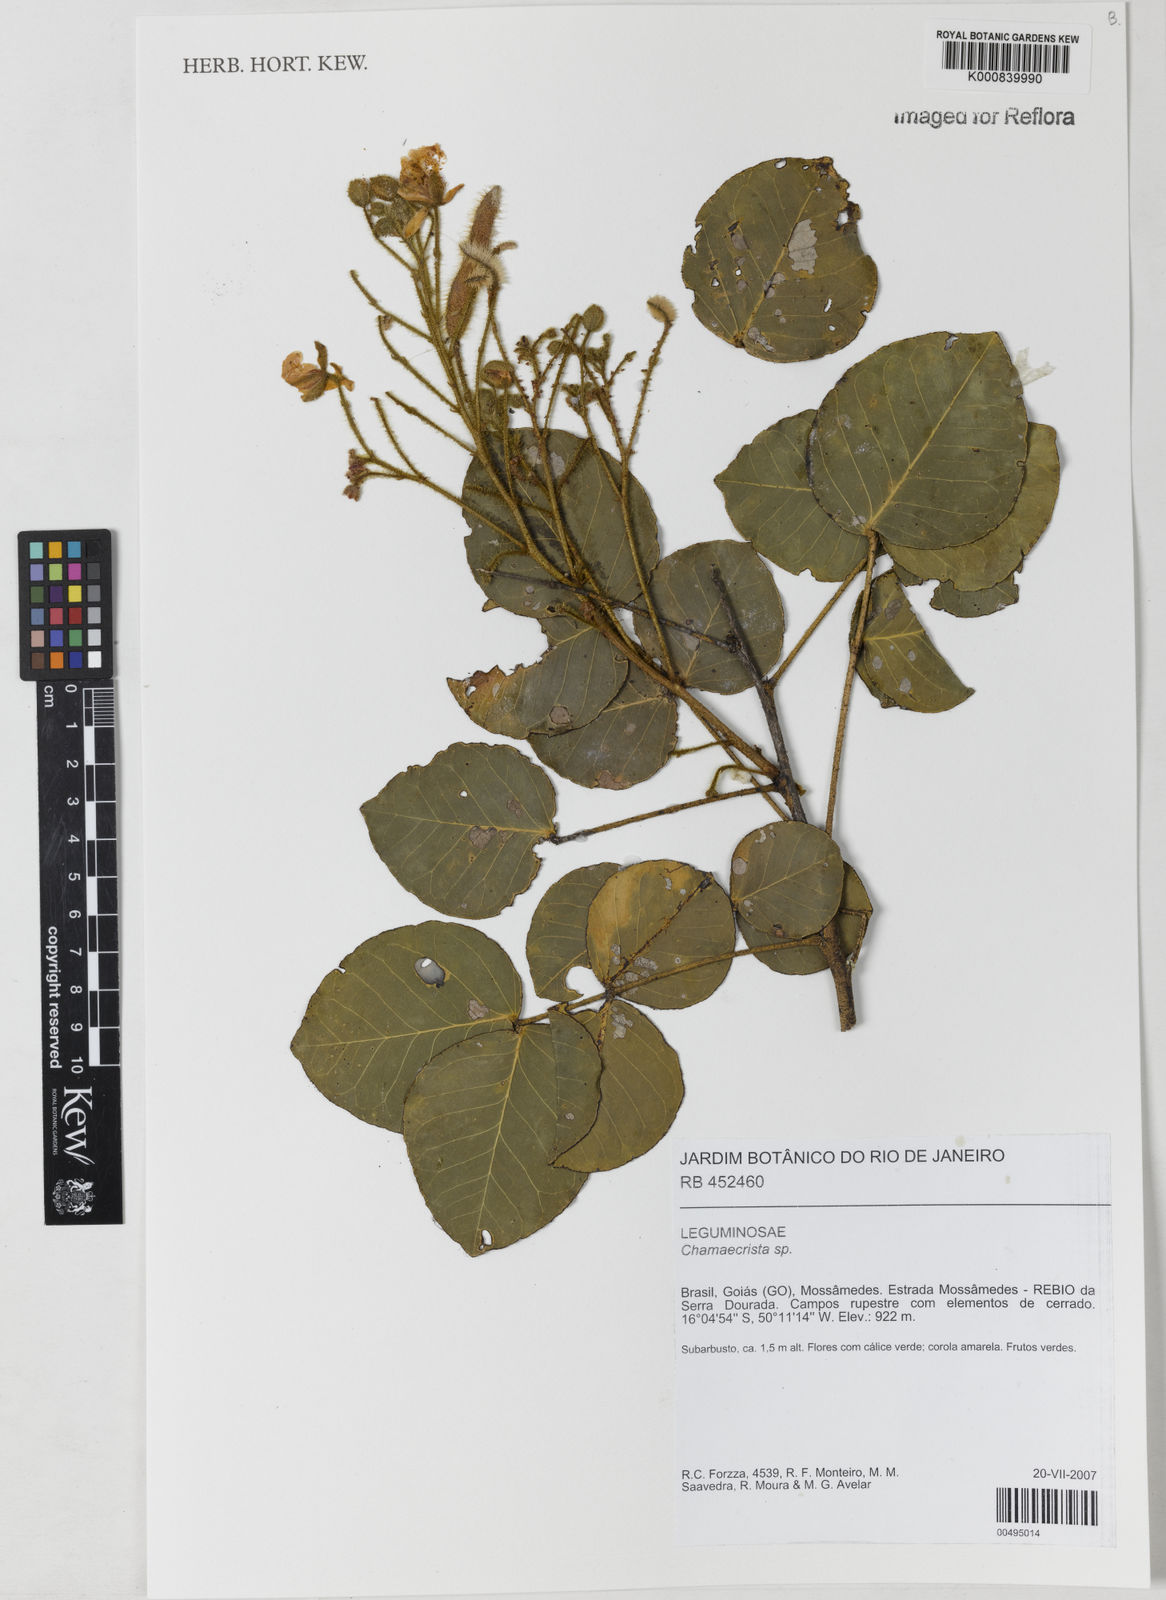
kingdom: Plantae
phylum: Tracheophyta
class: Magnoliopsida
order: Fabales
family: Fabaceae
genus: Chamaecrista
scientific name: Chamaecrista
